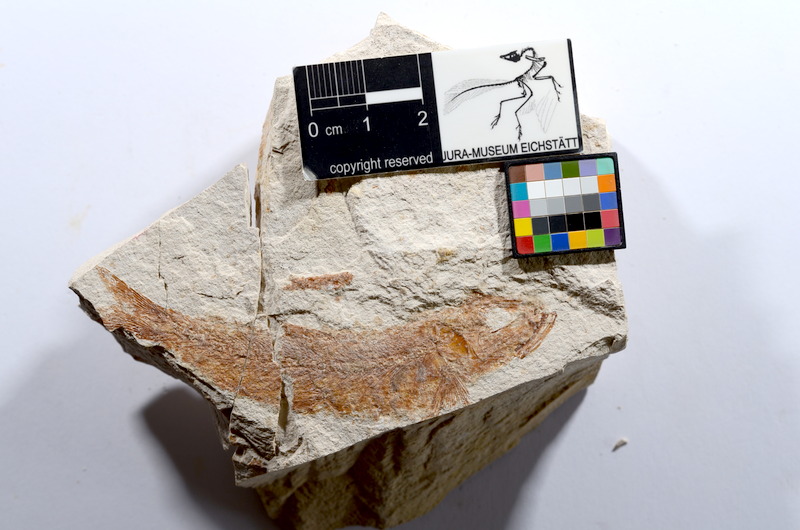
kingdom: Animalia
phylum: Chordata
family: Ascalaboidae
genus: Tharsis
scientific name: Tharsis dubius
